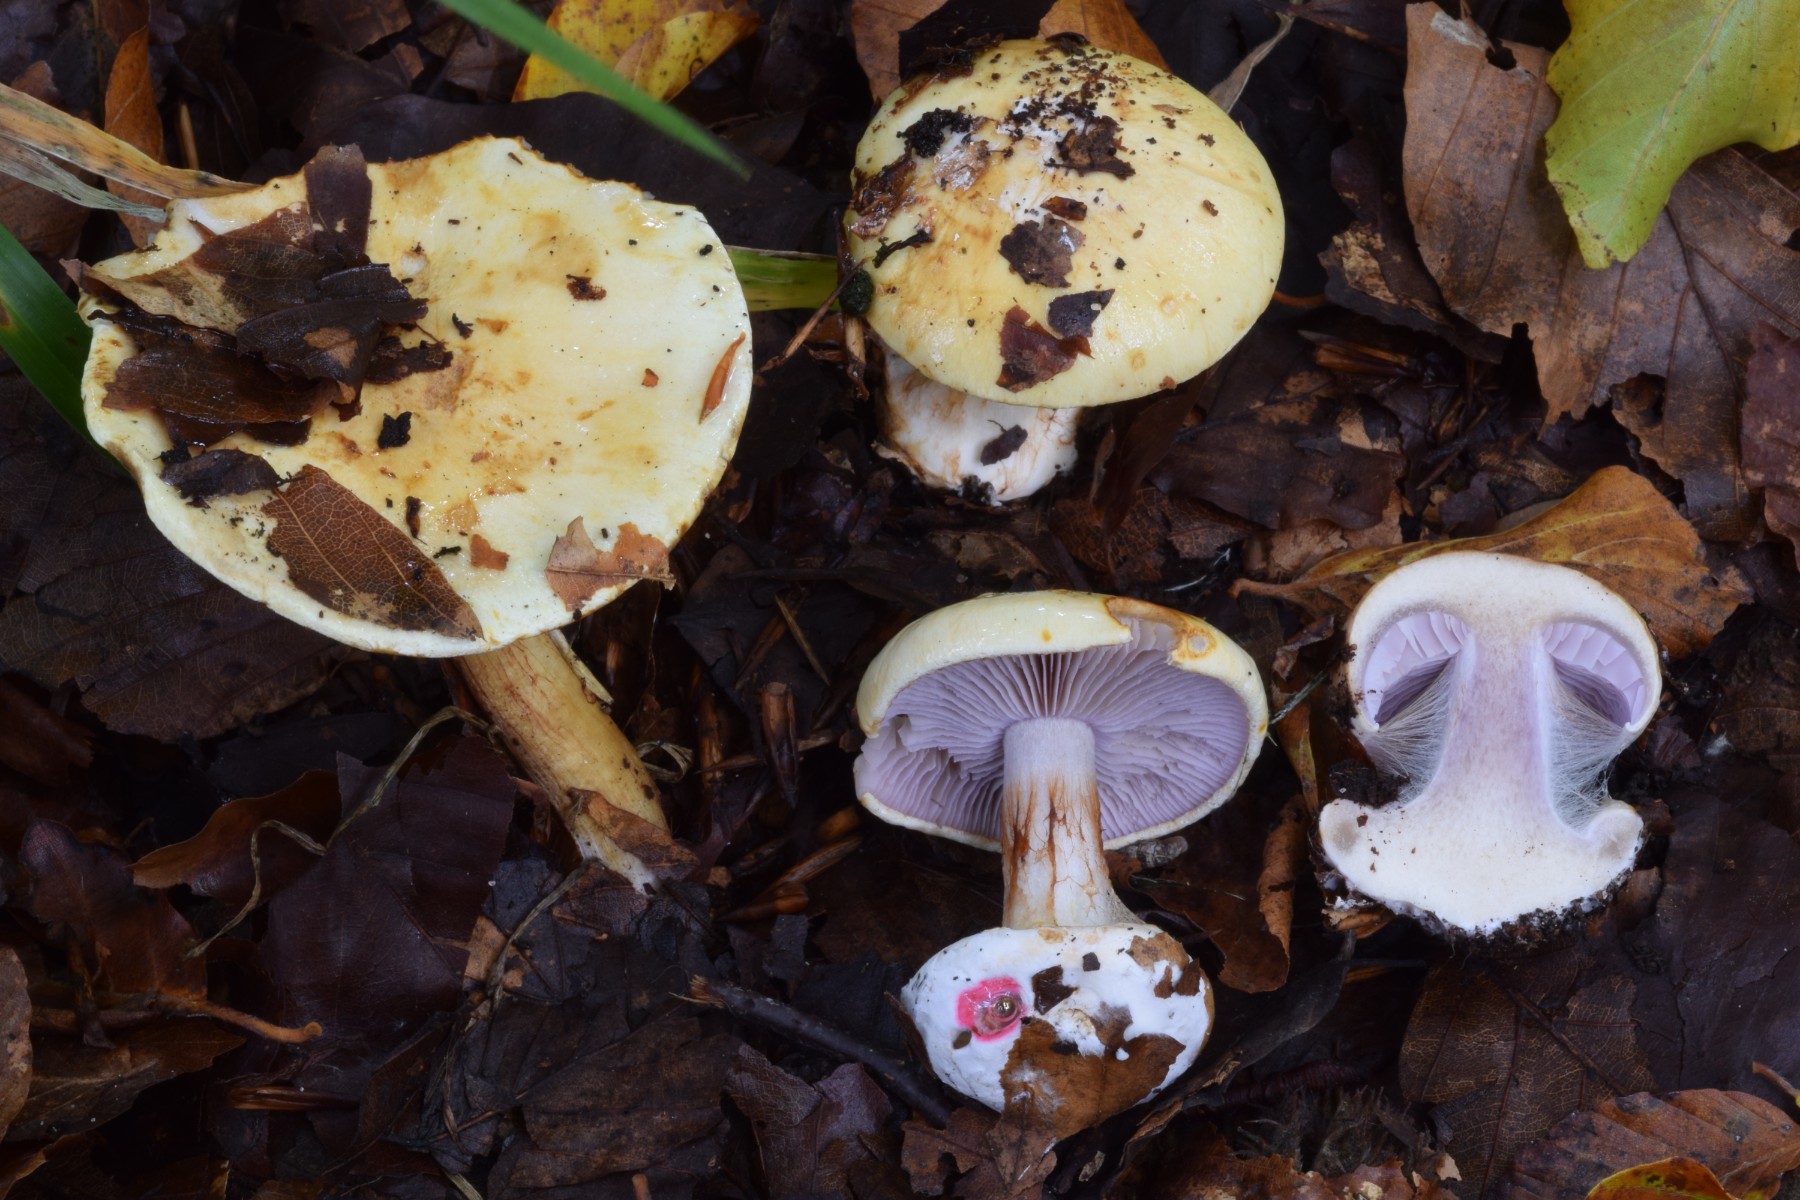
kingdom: Fungi
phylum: Basidiomycota
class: Agaricomycetes
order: Agaricales
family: Cortinariaceae
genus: Calonarius
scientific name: Calonarius albertii
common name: Alberts slørhat
